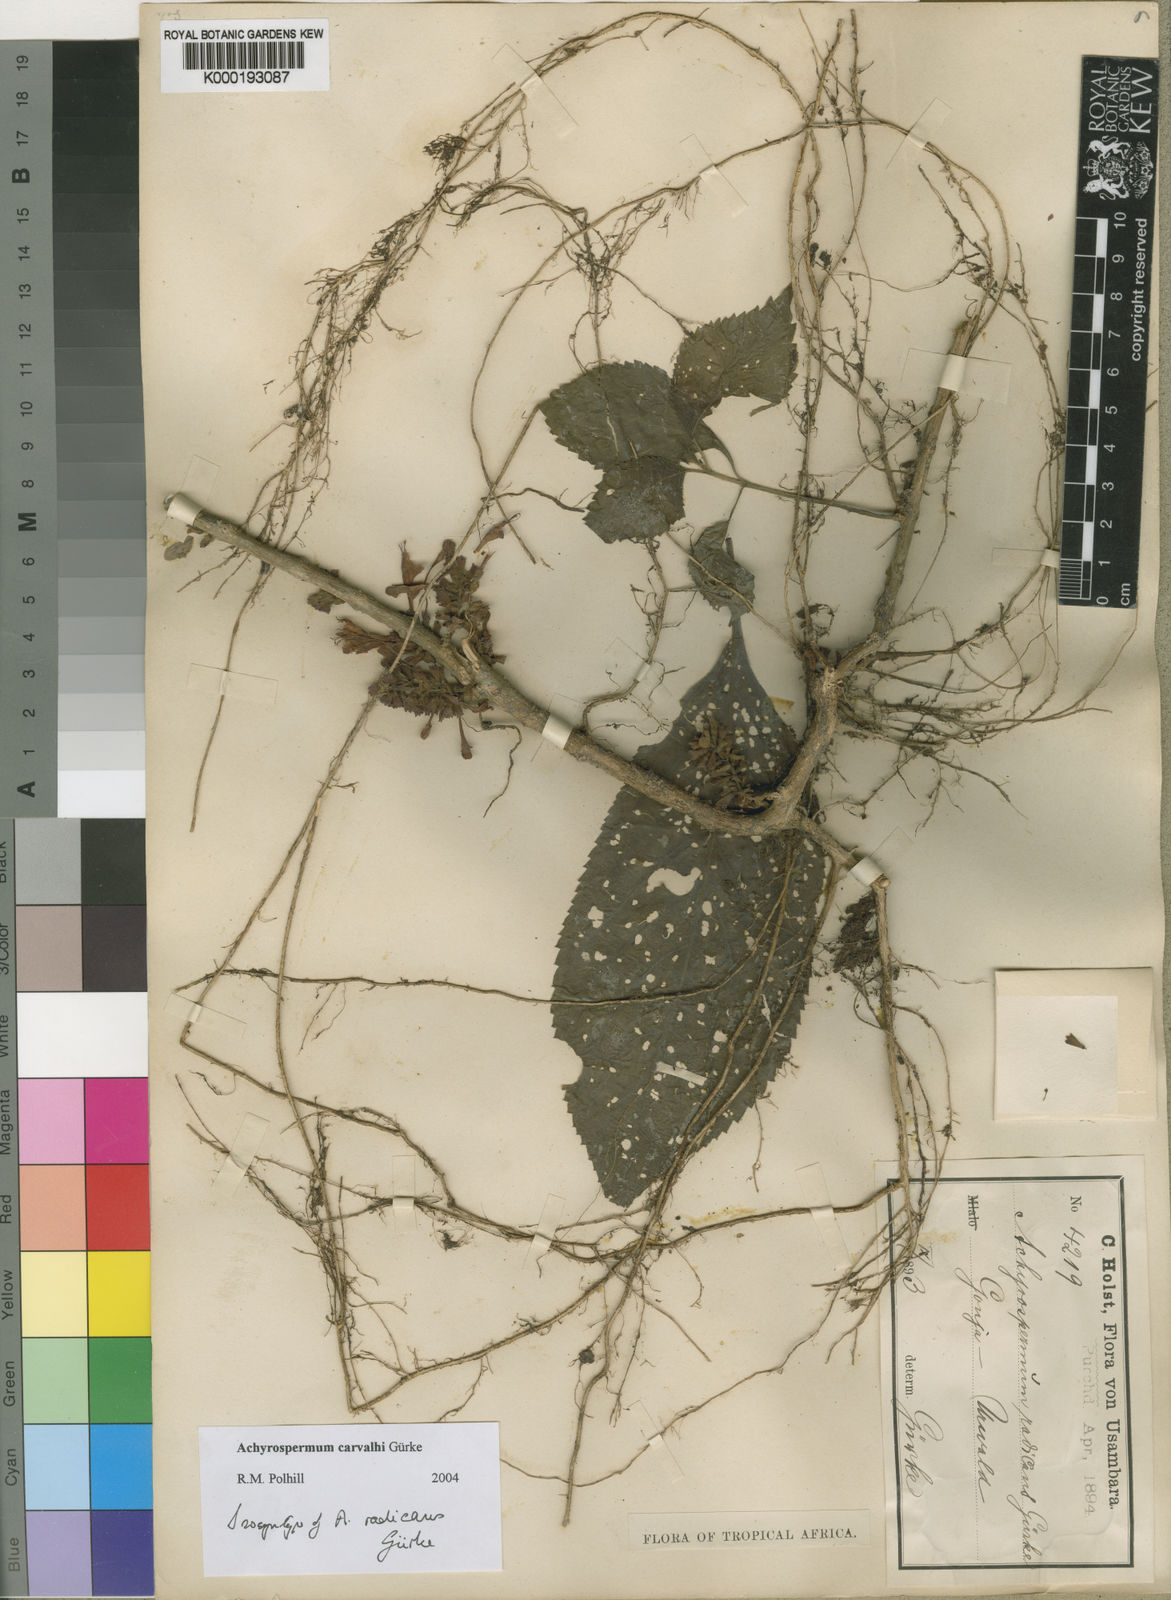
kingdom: Plantae
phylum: Tracheophyta
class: Magnoliopsida
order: Lamiales
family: Lamiaceae
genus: Achyrospermum
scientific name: Achyrospermum
